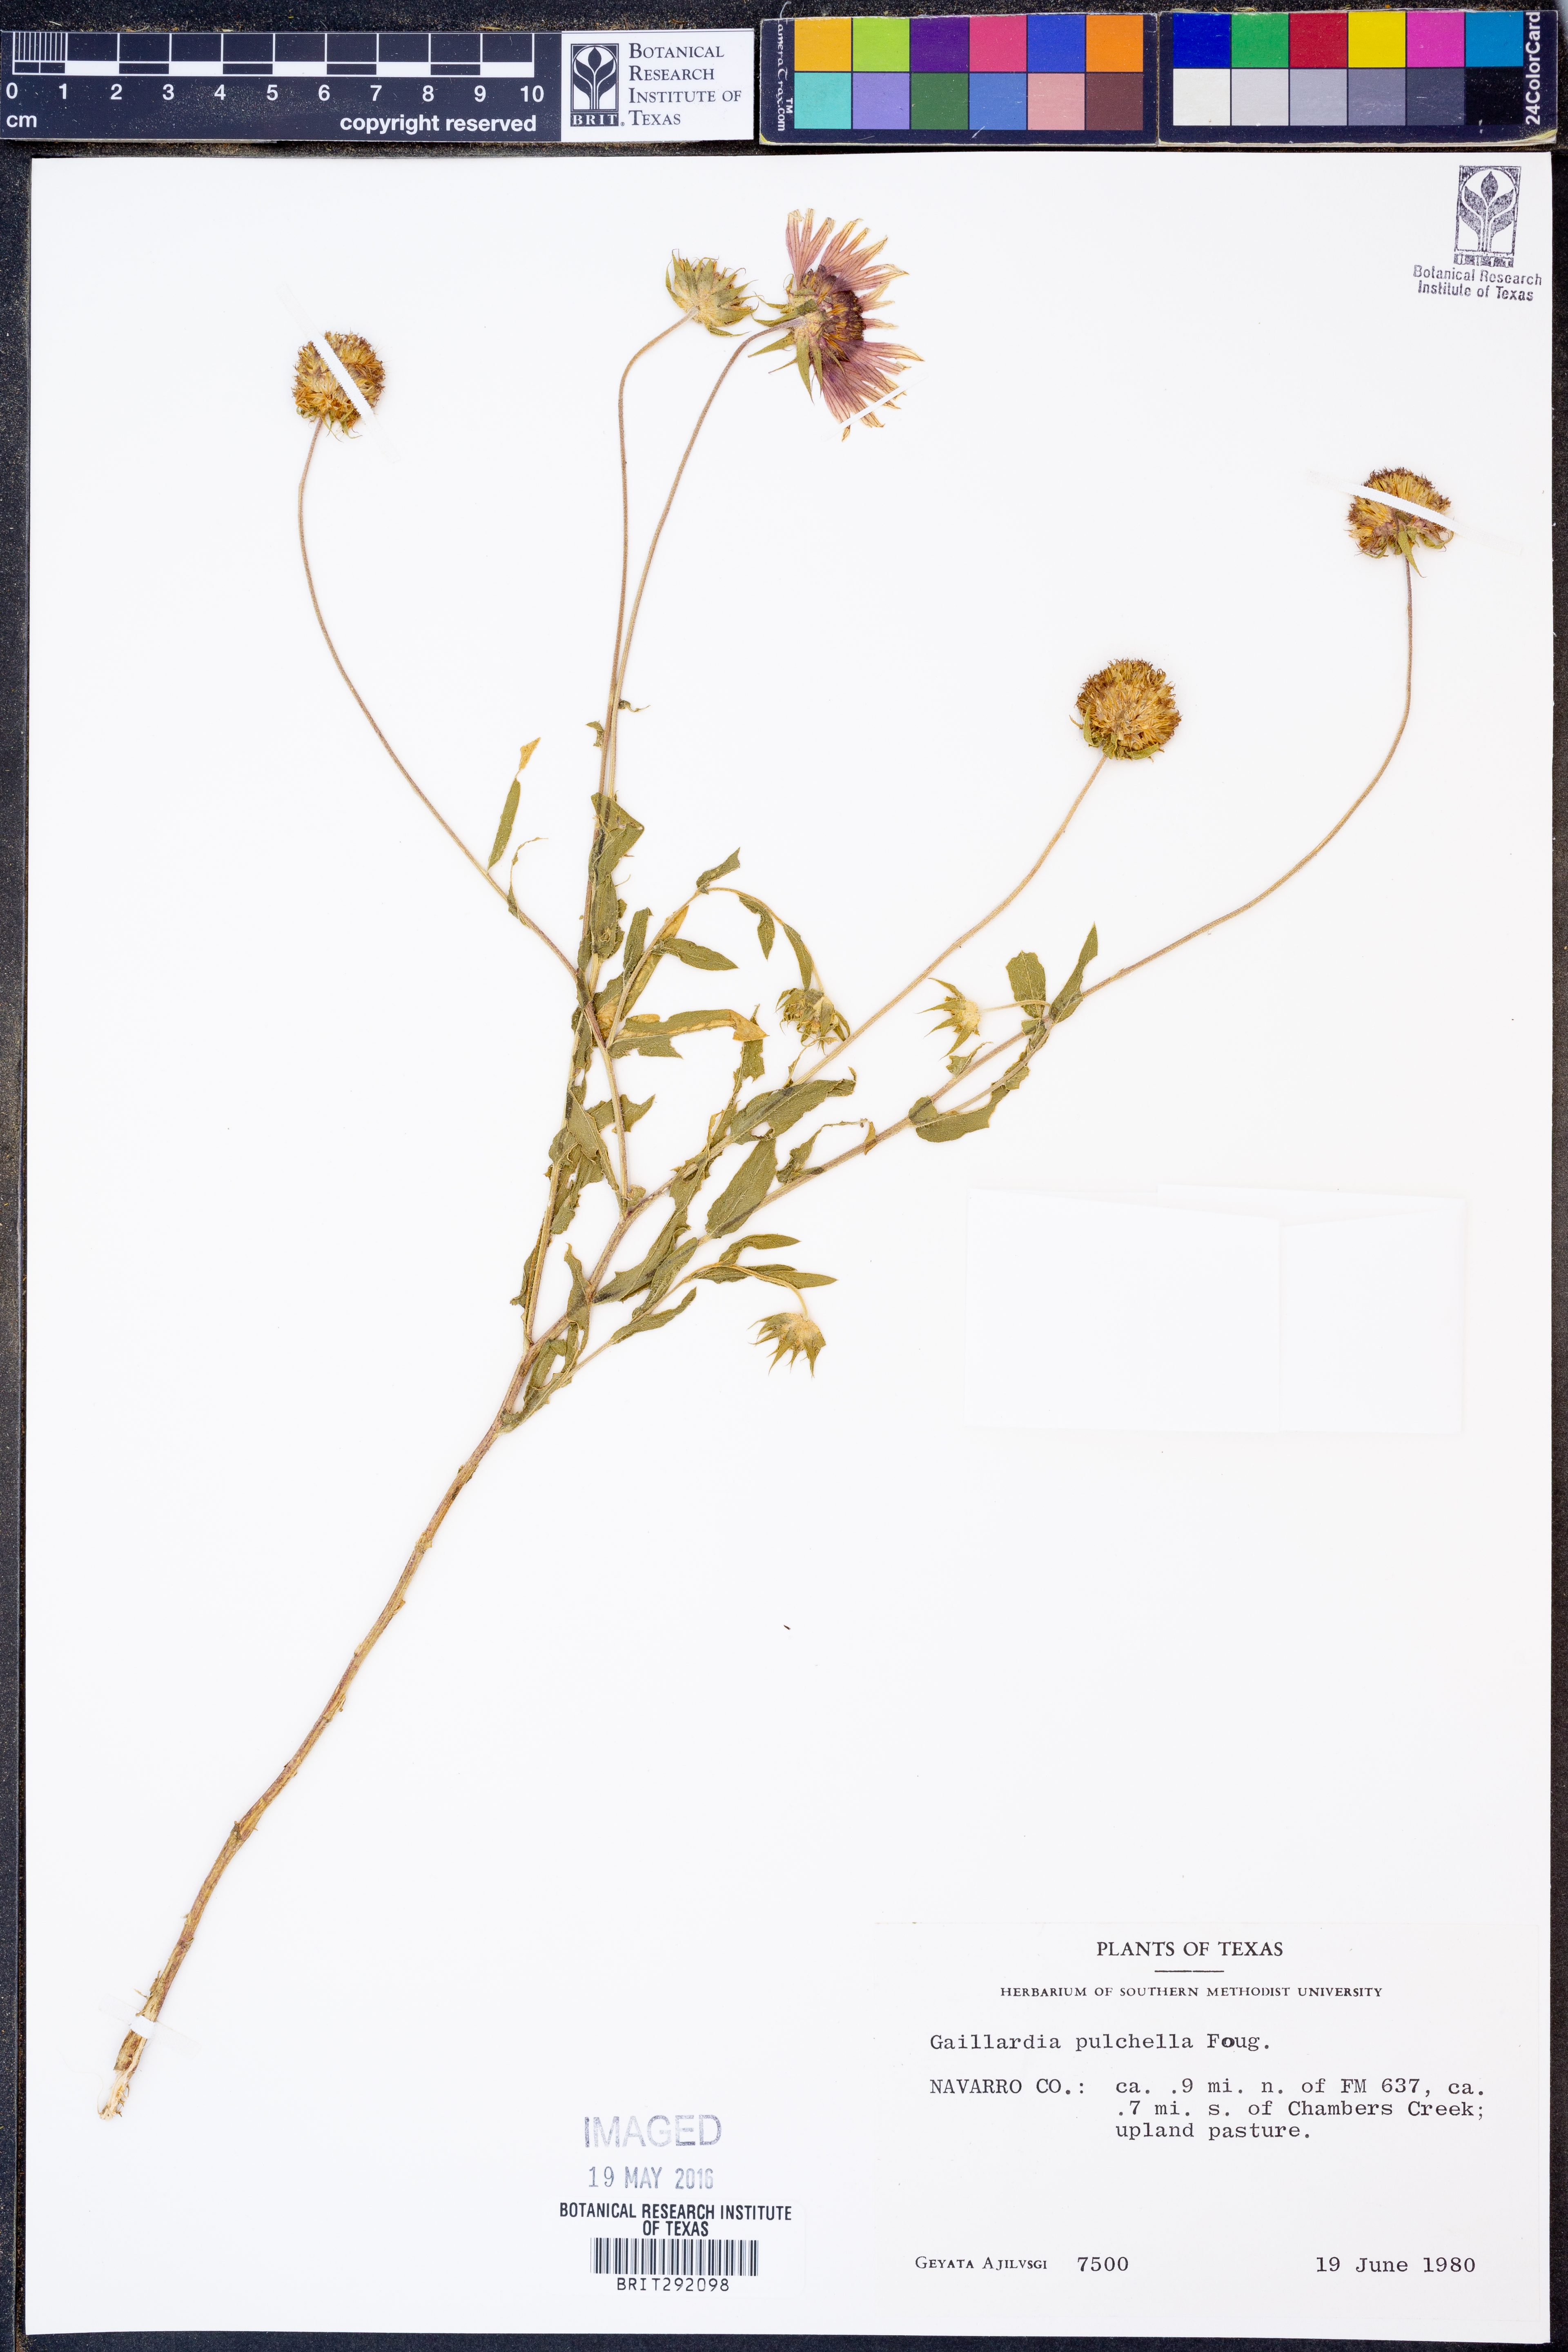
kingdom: Plantae
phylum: Tracheophyta
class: Magnoliopsida
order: Asterales
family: Asteraceae
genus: Gaillardia
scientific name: Gaillardia pulchella
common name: Firewheel
